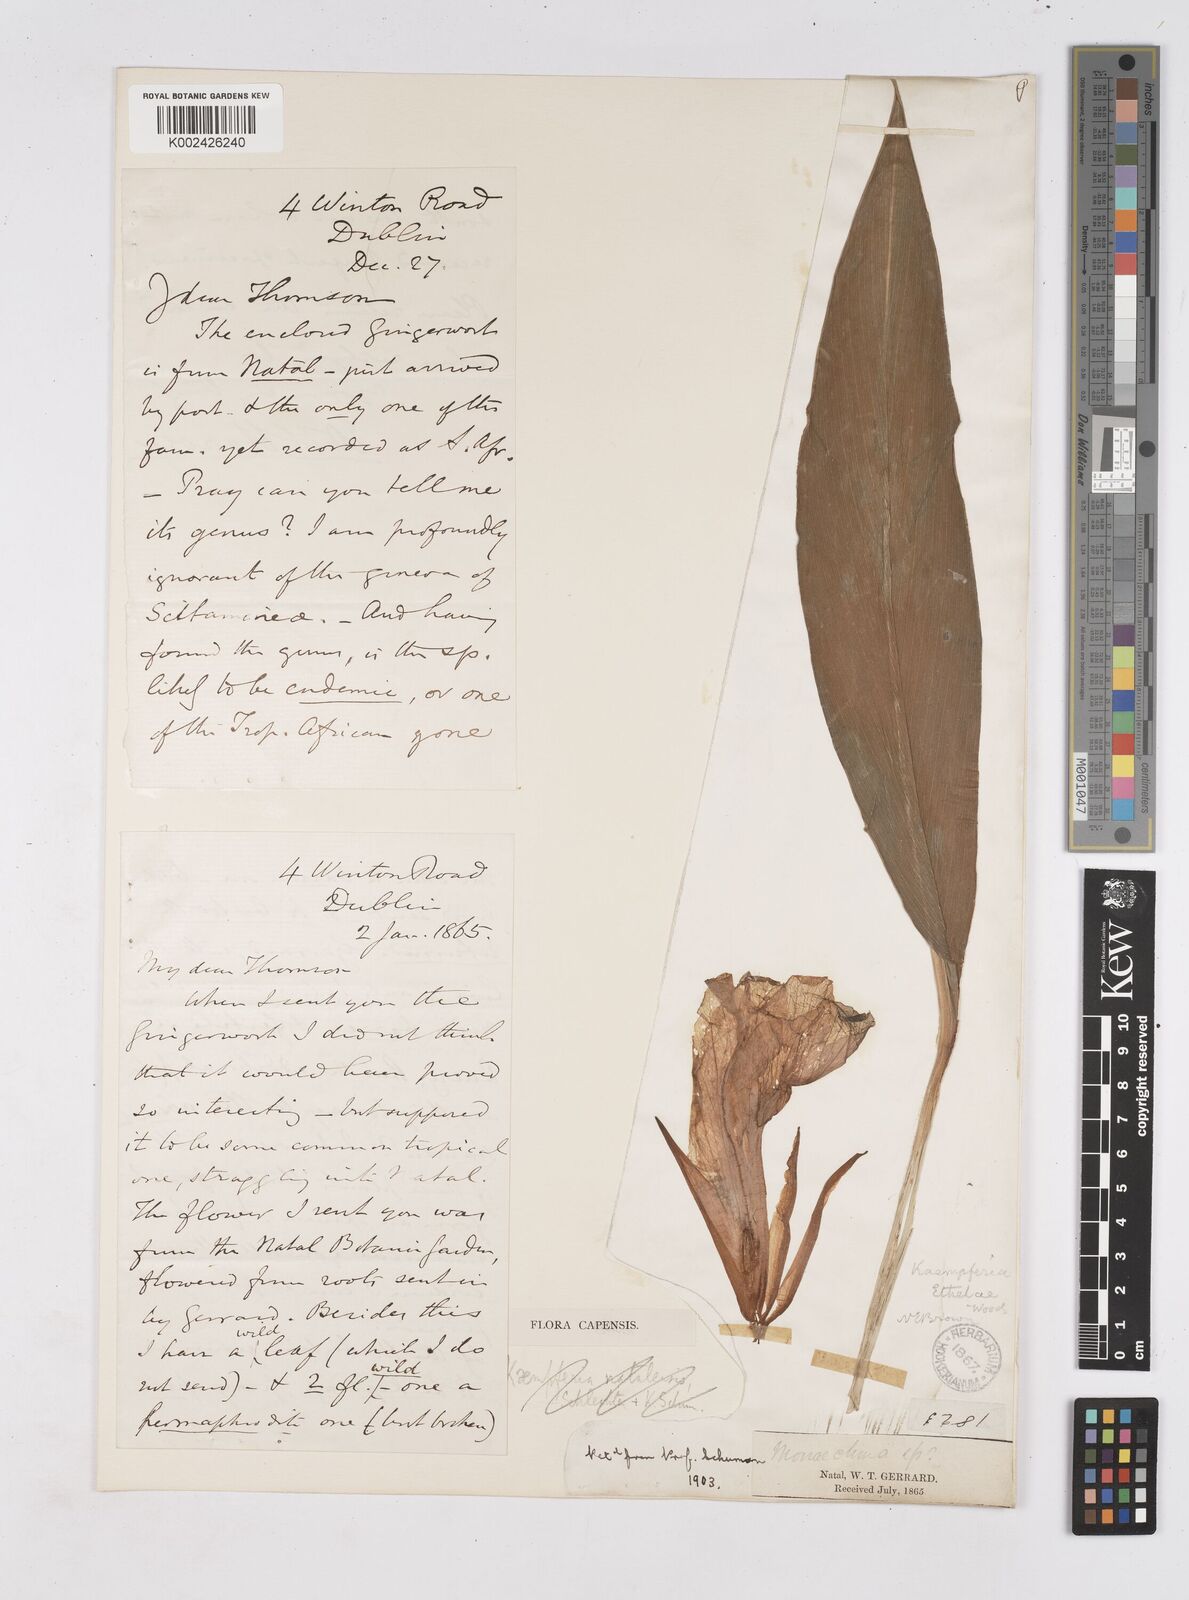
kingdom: Plantae
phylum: Tracheophyta
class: Liliopsida
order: Zingiberales
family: Zingiberaceae
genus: Siphonochilus
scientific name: Siphonochilus
